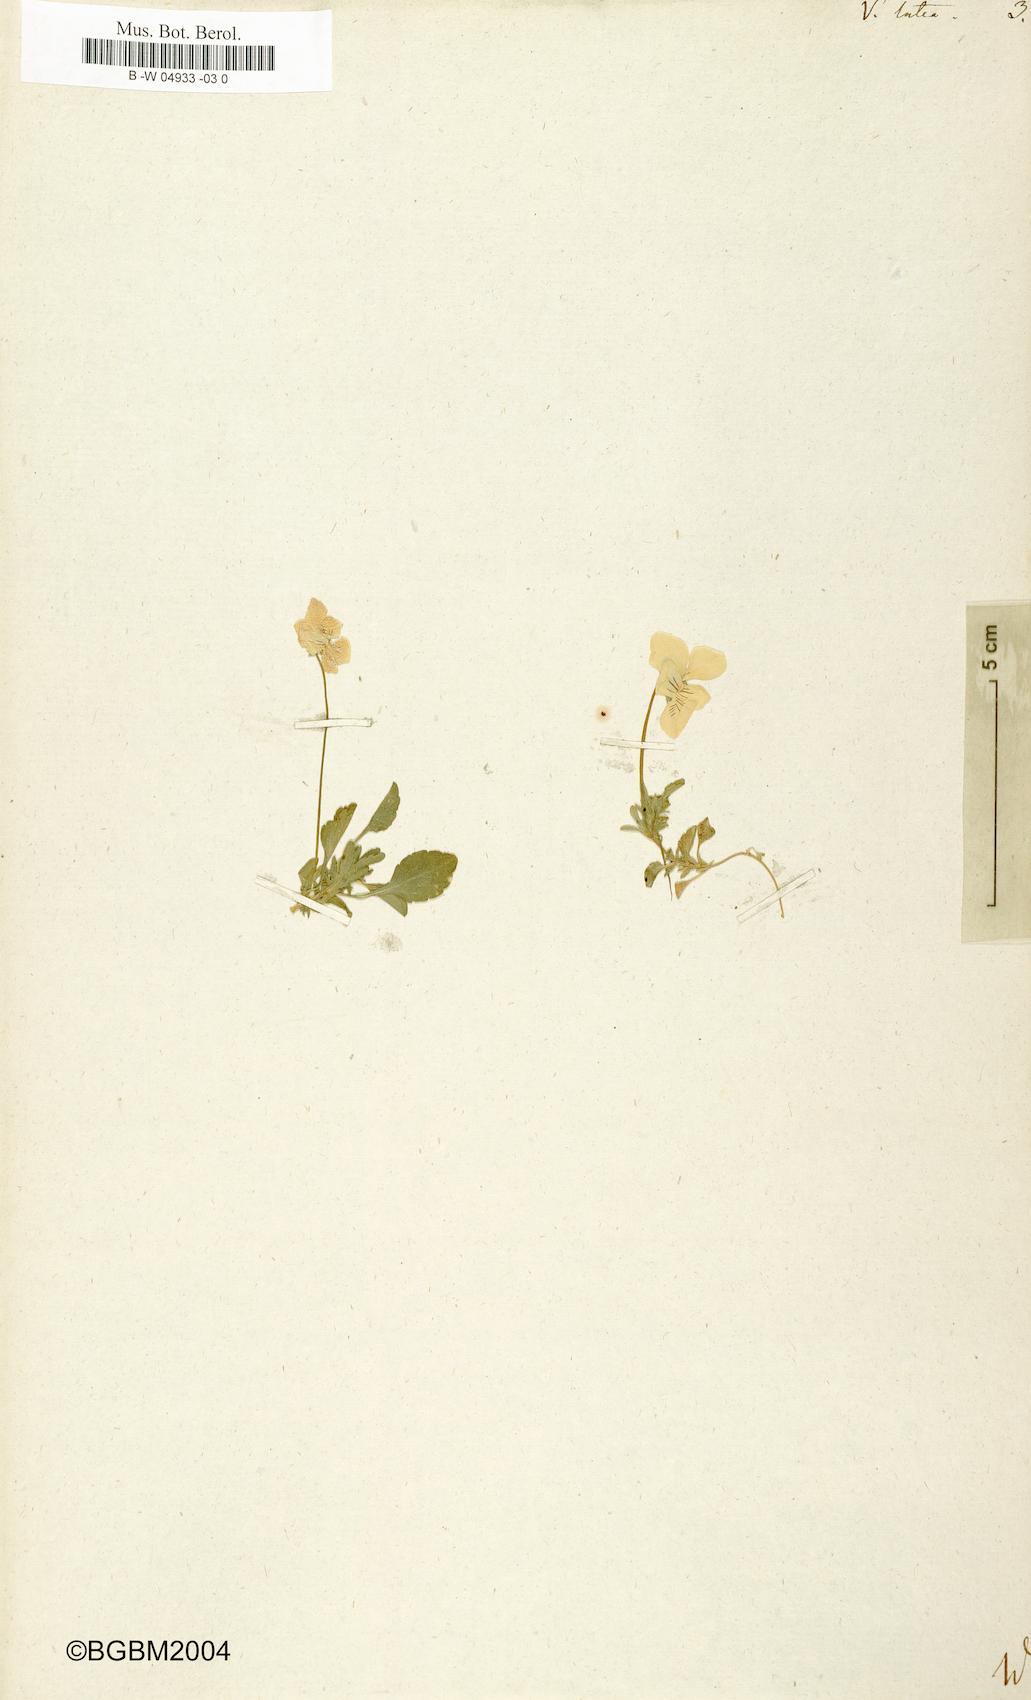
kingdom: Plantae
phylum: Tracheophyta
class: Magnoliopsida
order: Malpighiales
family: Violaceae
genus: Viola
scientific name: Viola lutea
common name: Mountain pansy
